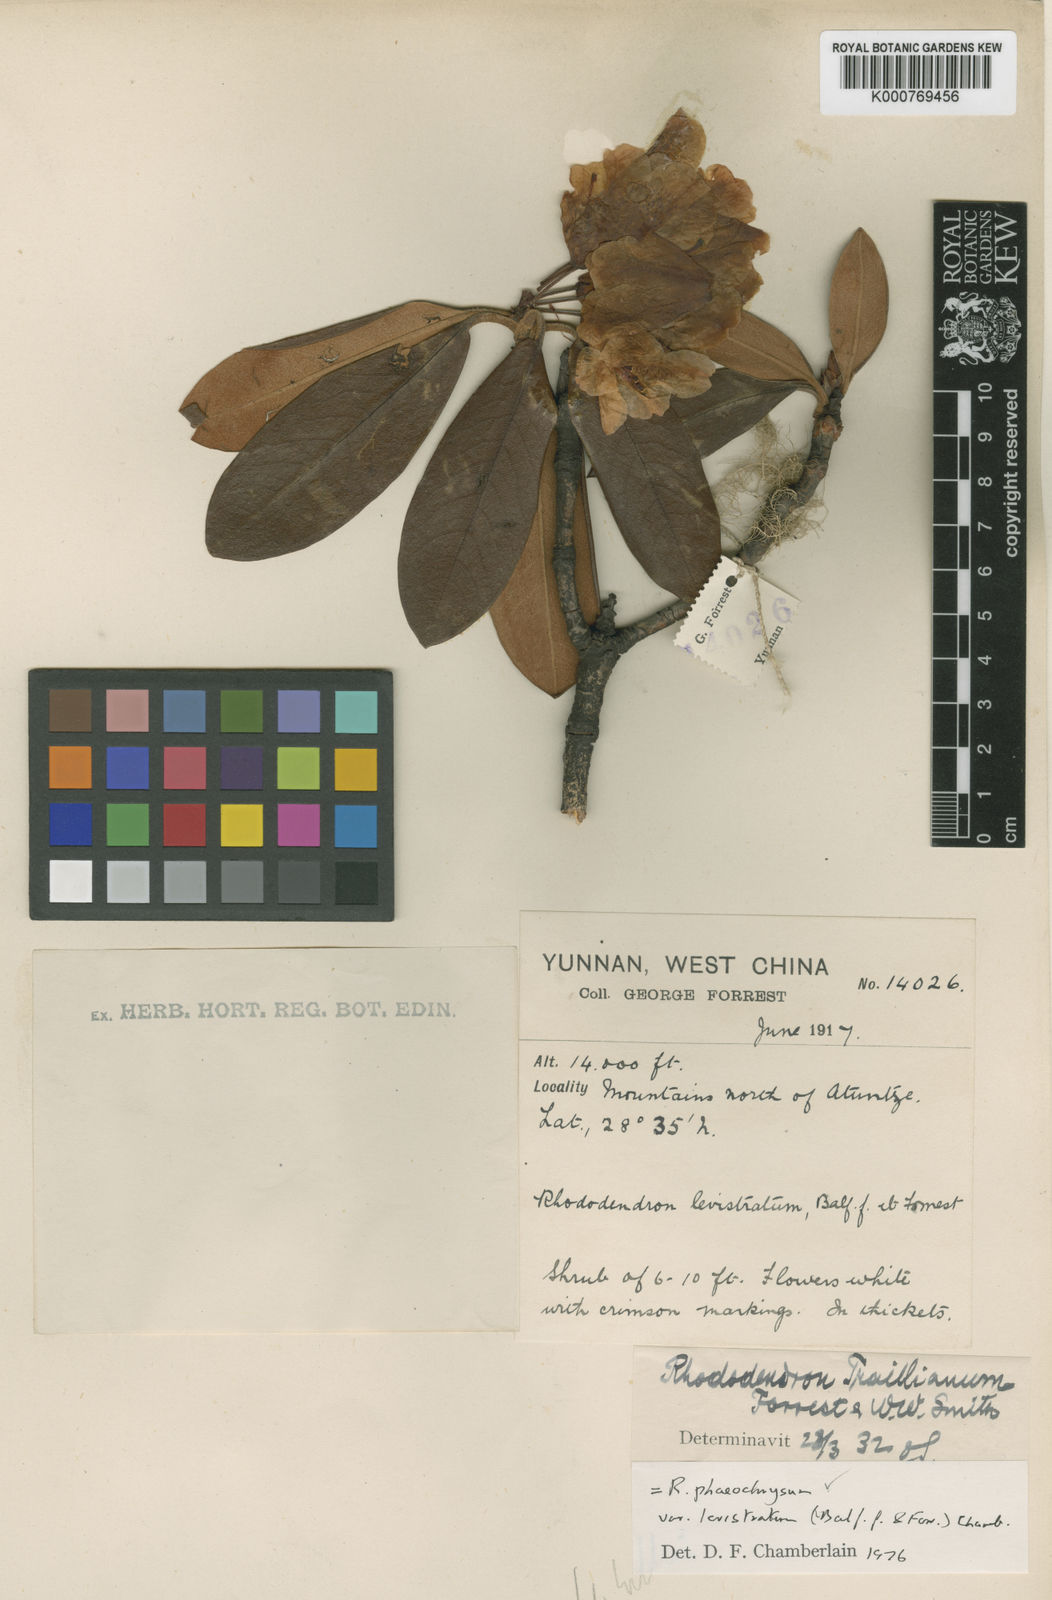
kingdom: Plantae
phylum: Tracheophyta
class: Magnoliopsida
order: Ericales
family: Ericaceae
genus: Rhododendron
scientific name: Rhododendron phaeochrysum
